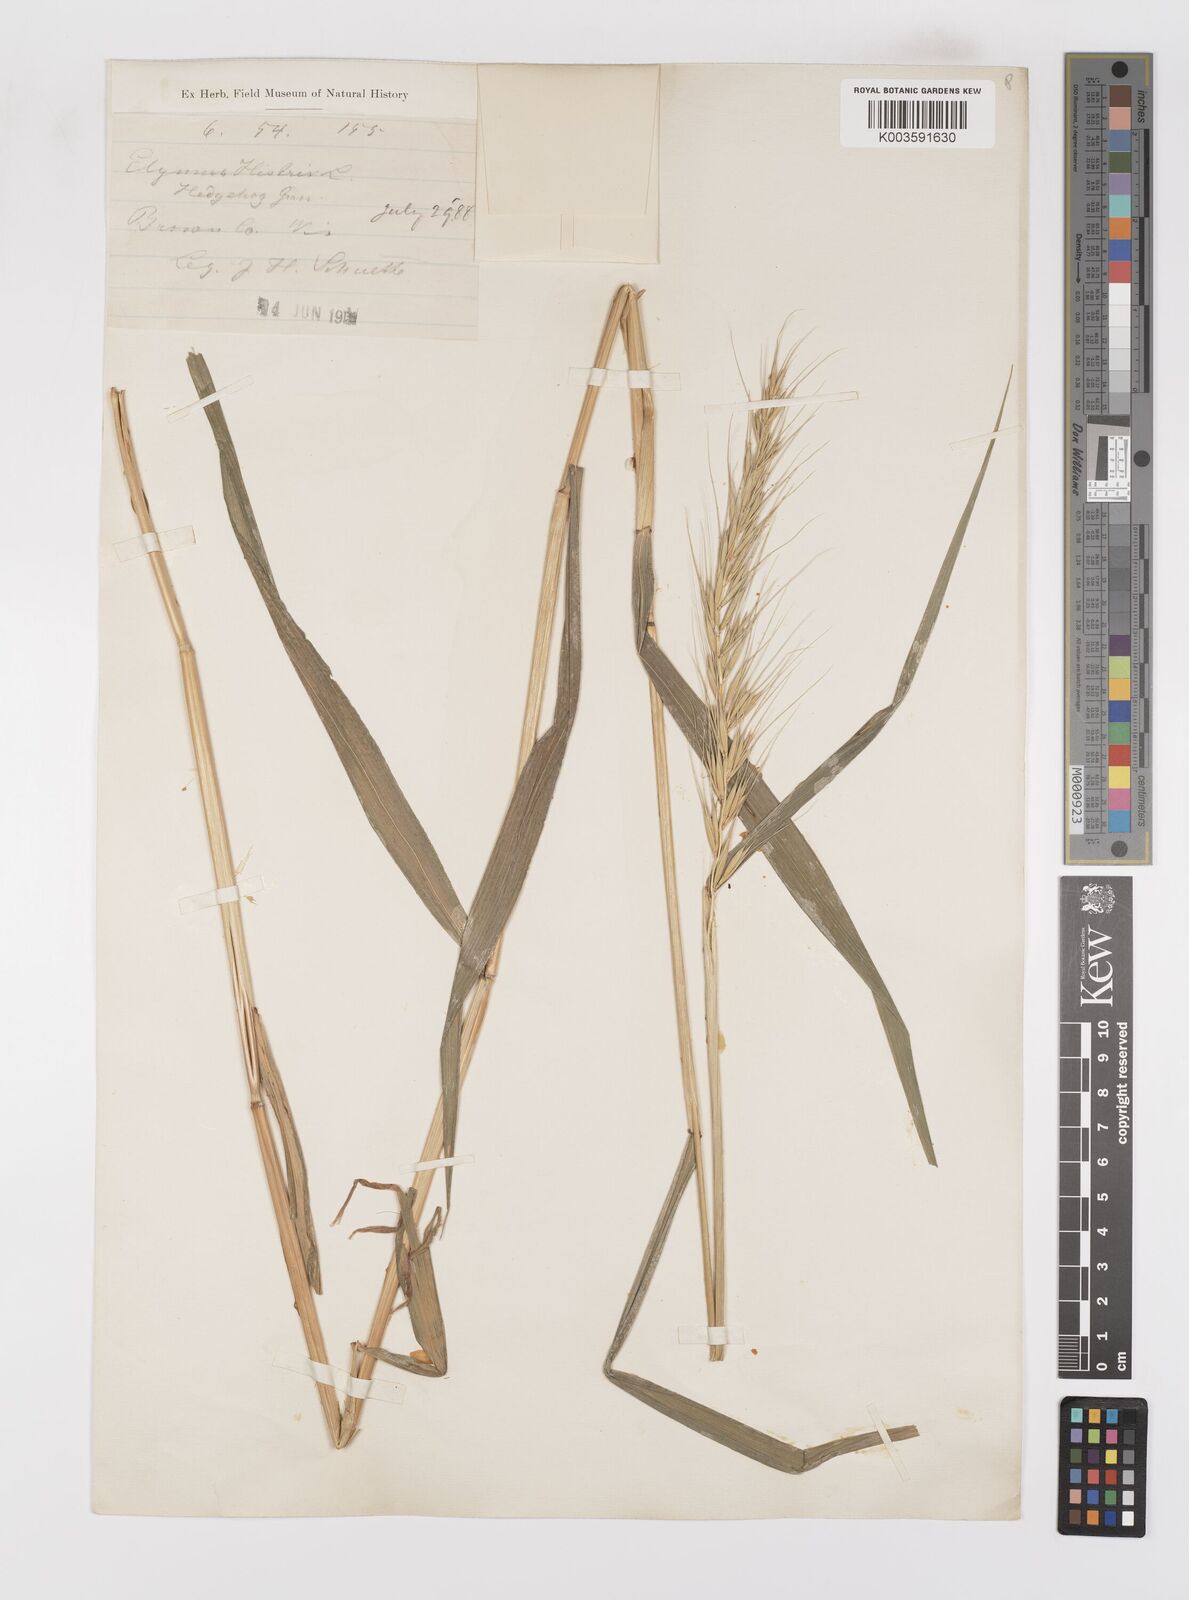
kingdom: Plantae
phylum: Tracheophyta
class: Liliopsida
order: Poales
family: Poaceae
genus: Leymus
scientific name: Leymus
